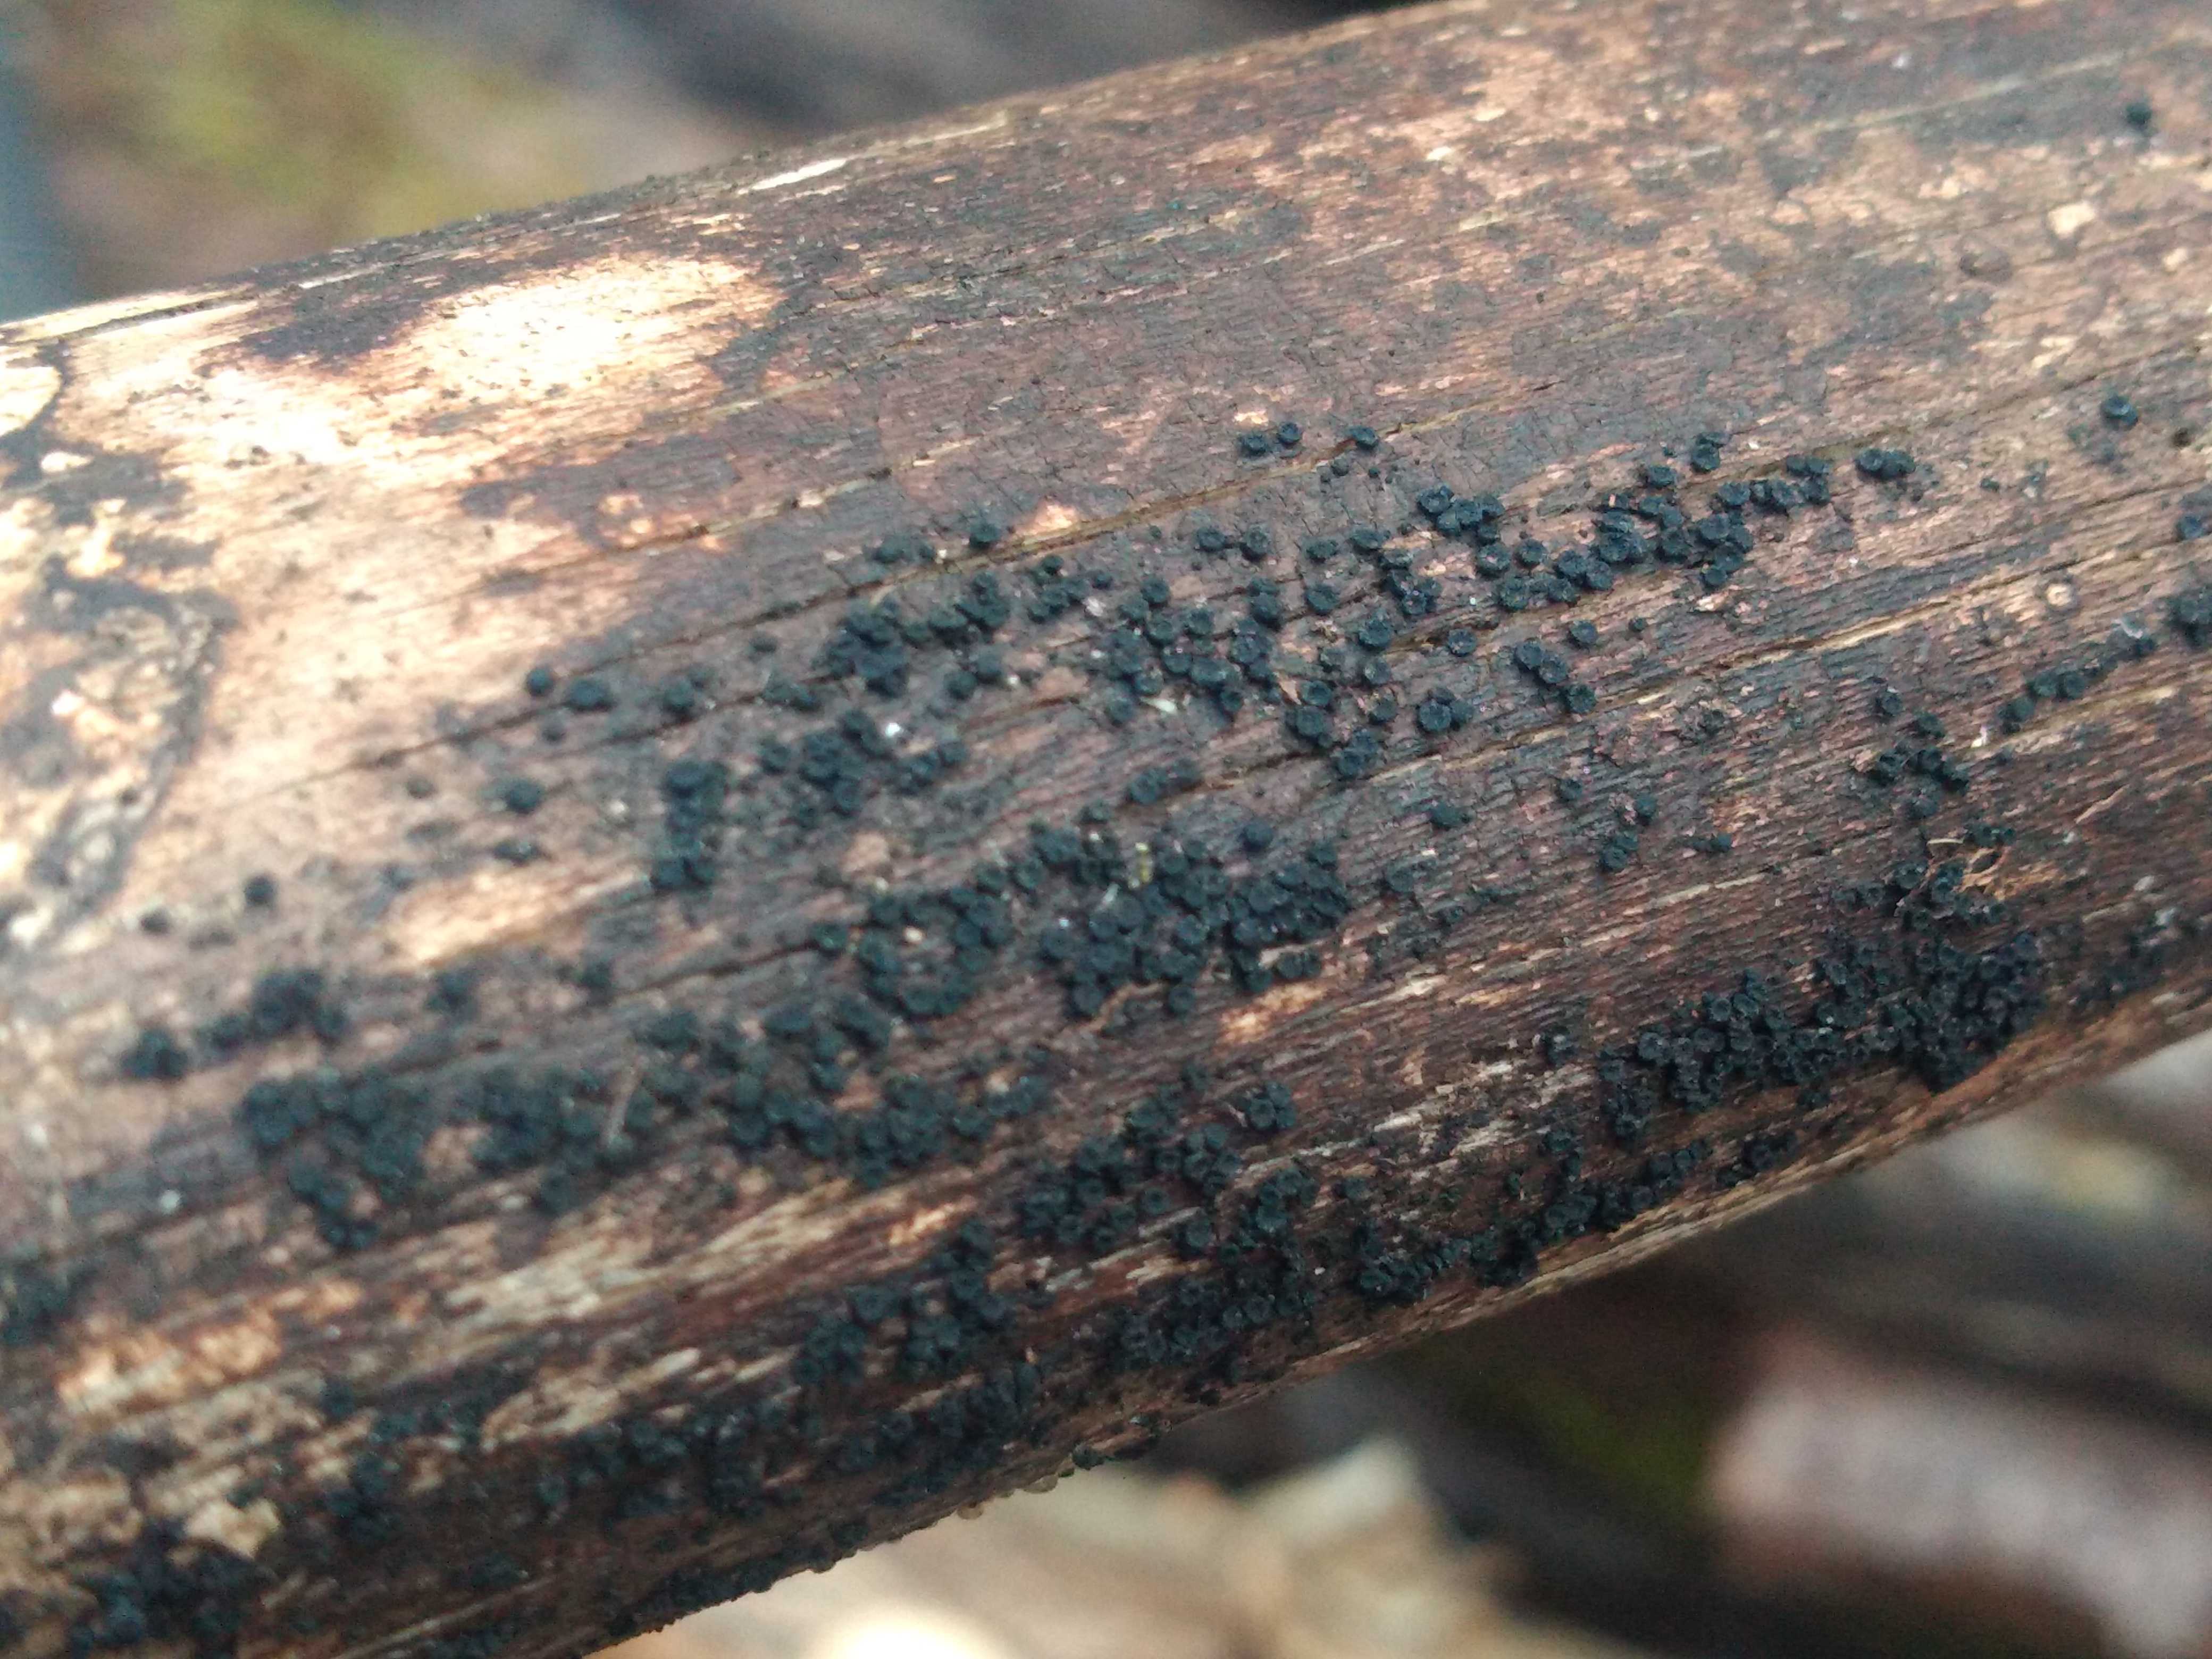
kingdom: Fungi
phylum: Ascomycota
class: Sordariomycetes
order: Coronophorales
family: Nitschkiaceae
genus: Nitschkia
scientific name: Nitschkia
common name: skålkerne
